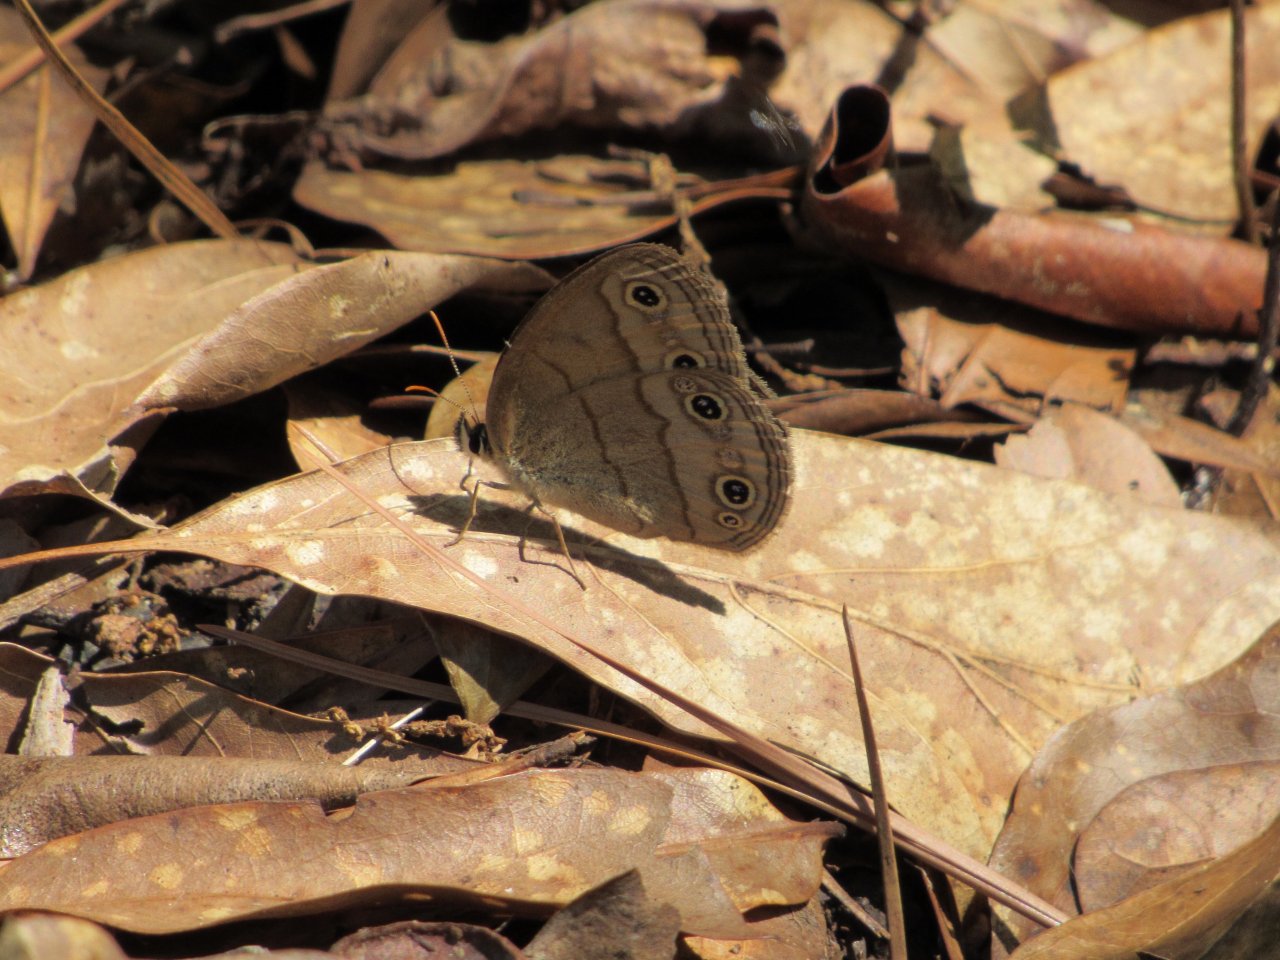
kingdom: Animalia
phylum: Arthropoda
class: Insecta
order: Lepidoptera
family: Nymphalidae
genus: Euptychia
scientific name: Euptychia cymela
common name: Little Wood Satyr
